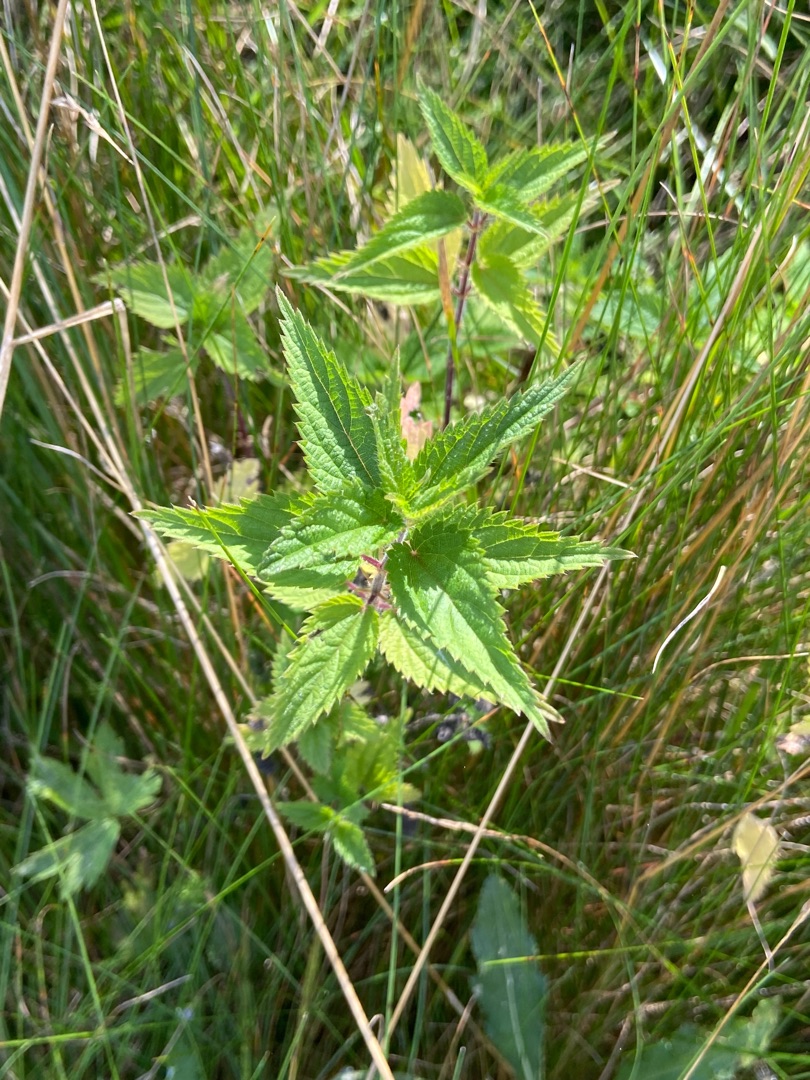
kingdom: Plantae
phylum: Tracheophyta
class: Magnoliopsida
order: Rosales
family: Urticaceae
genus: Urtica
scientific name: Urtica dioica
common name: Stor nælde
